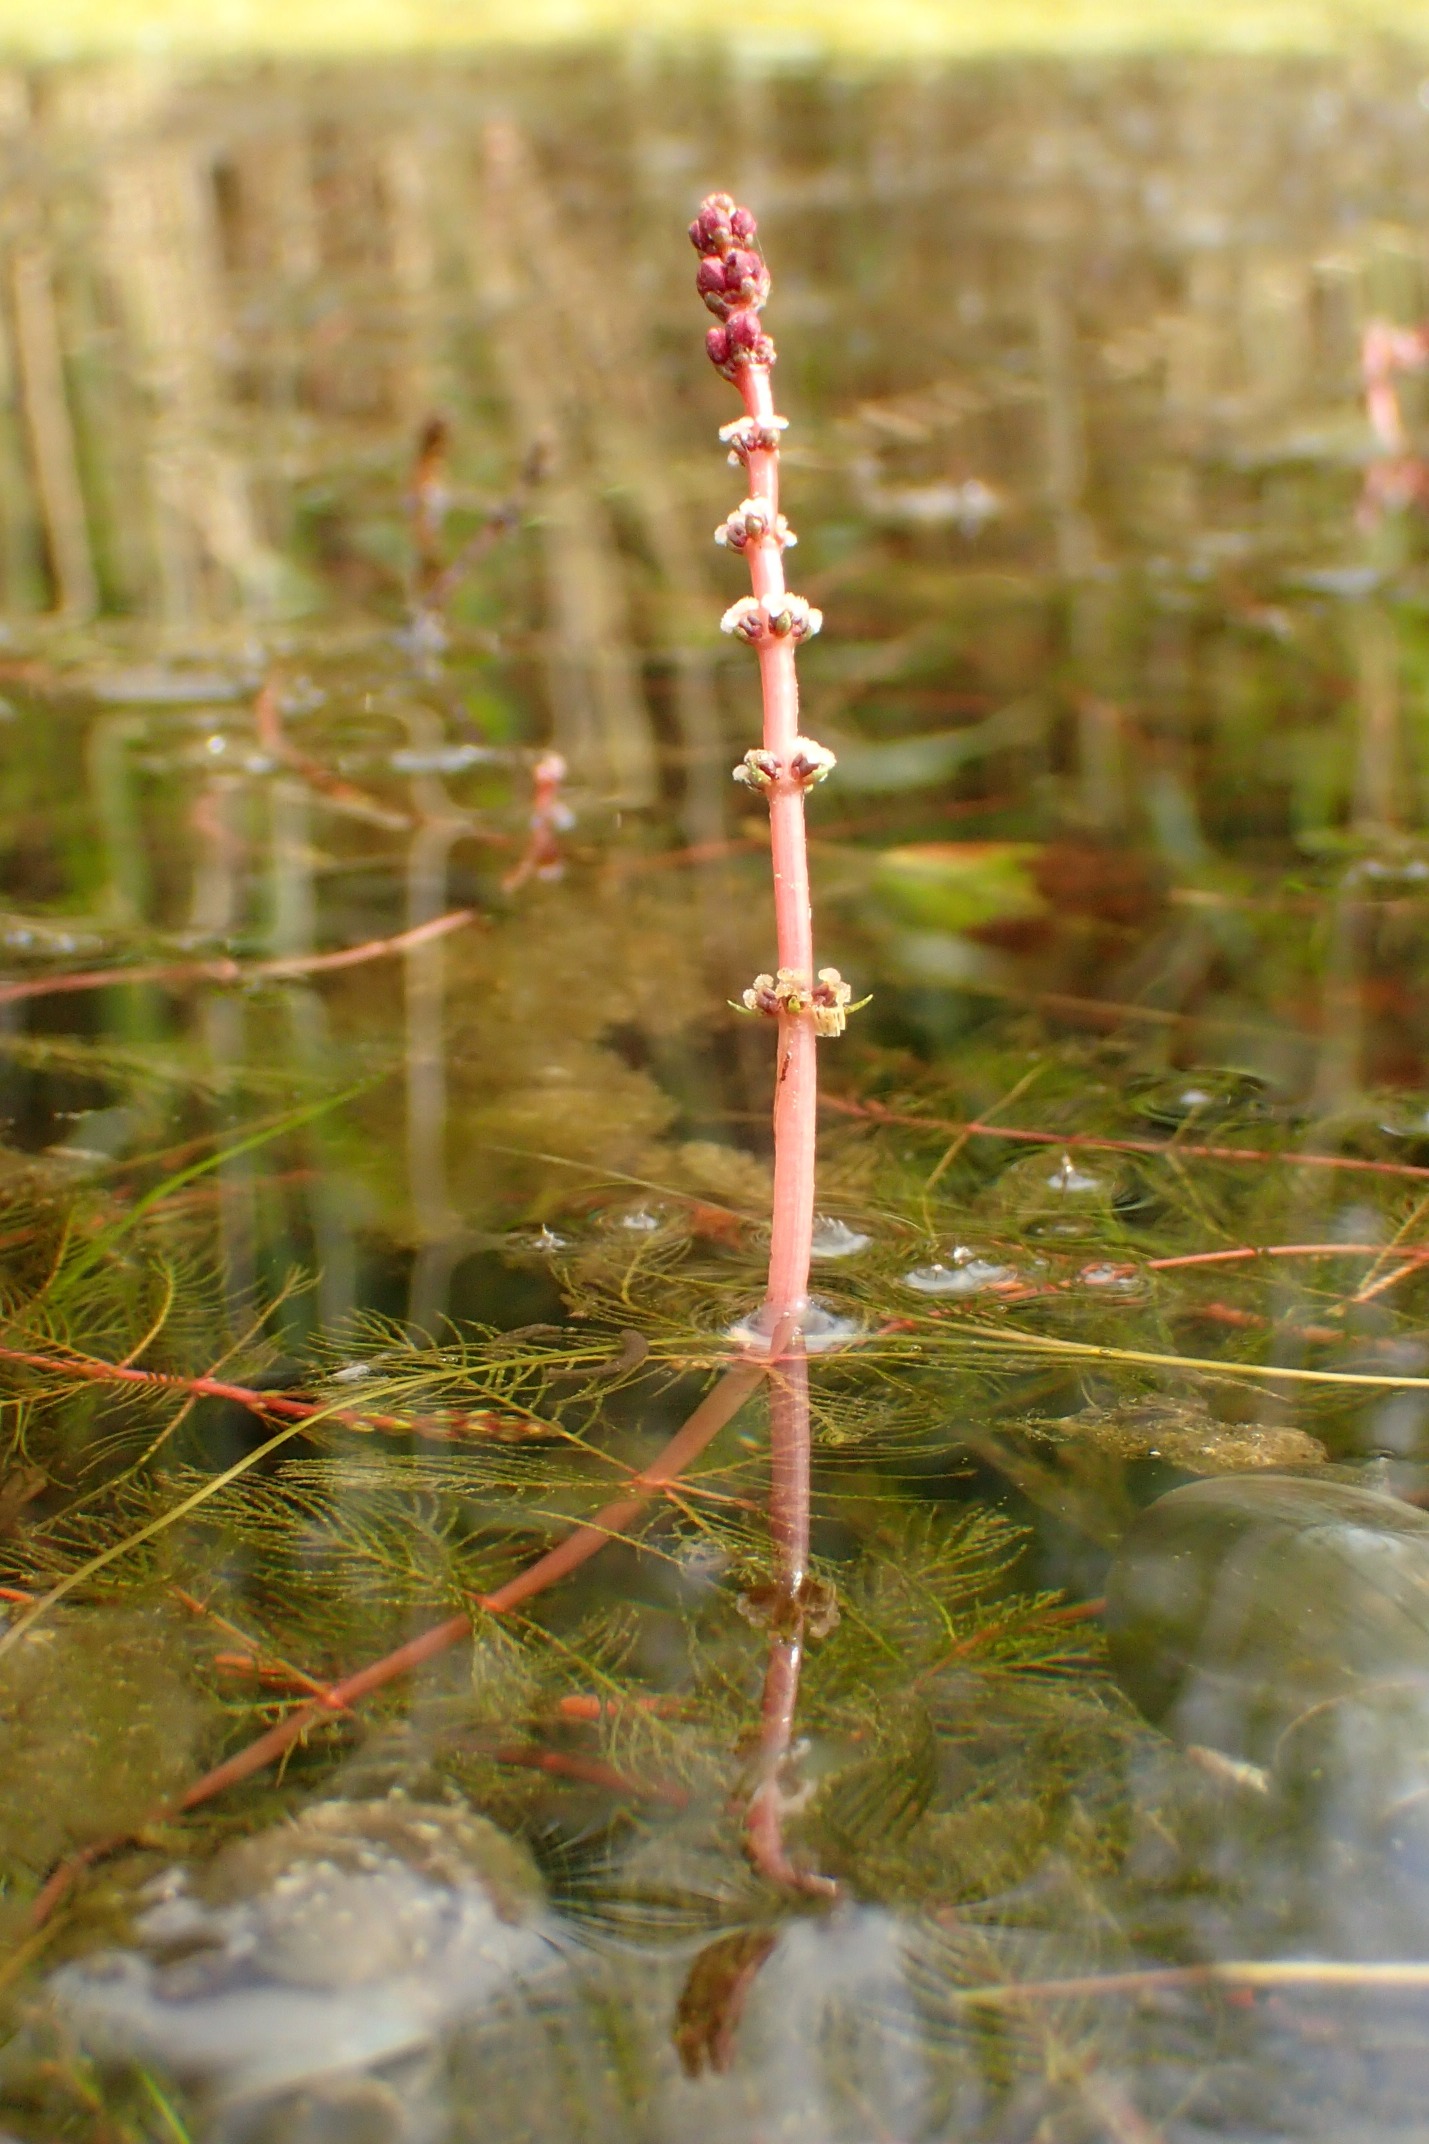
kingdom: Plantae
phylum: Tracheophyta
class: Magnoliopsida
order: Saxifragales
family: Haloragaceae
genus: Myriophyllum
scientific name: Myriophyllum spicatum
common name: Aks-tusindblad
